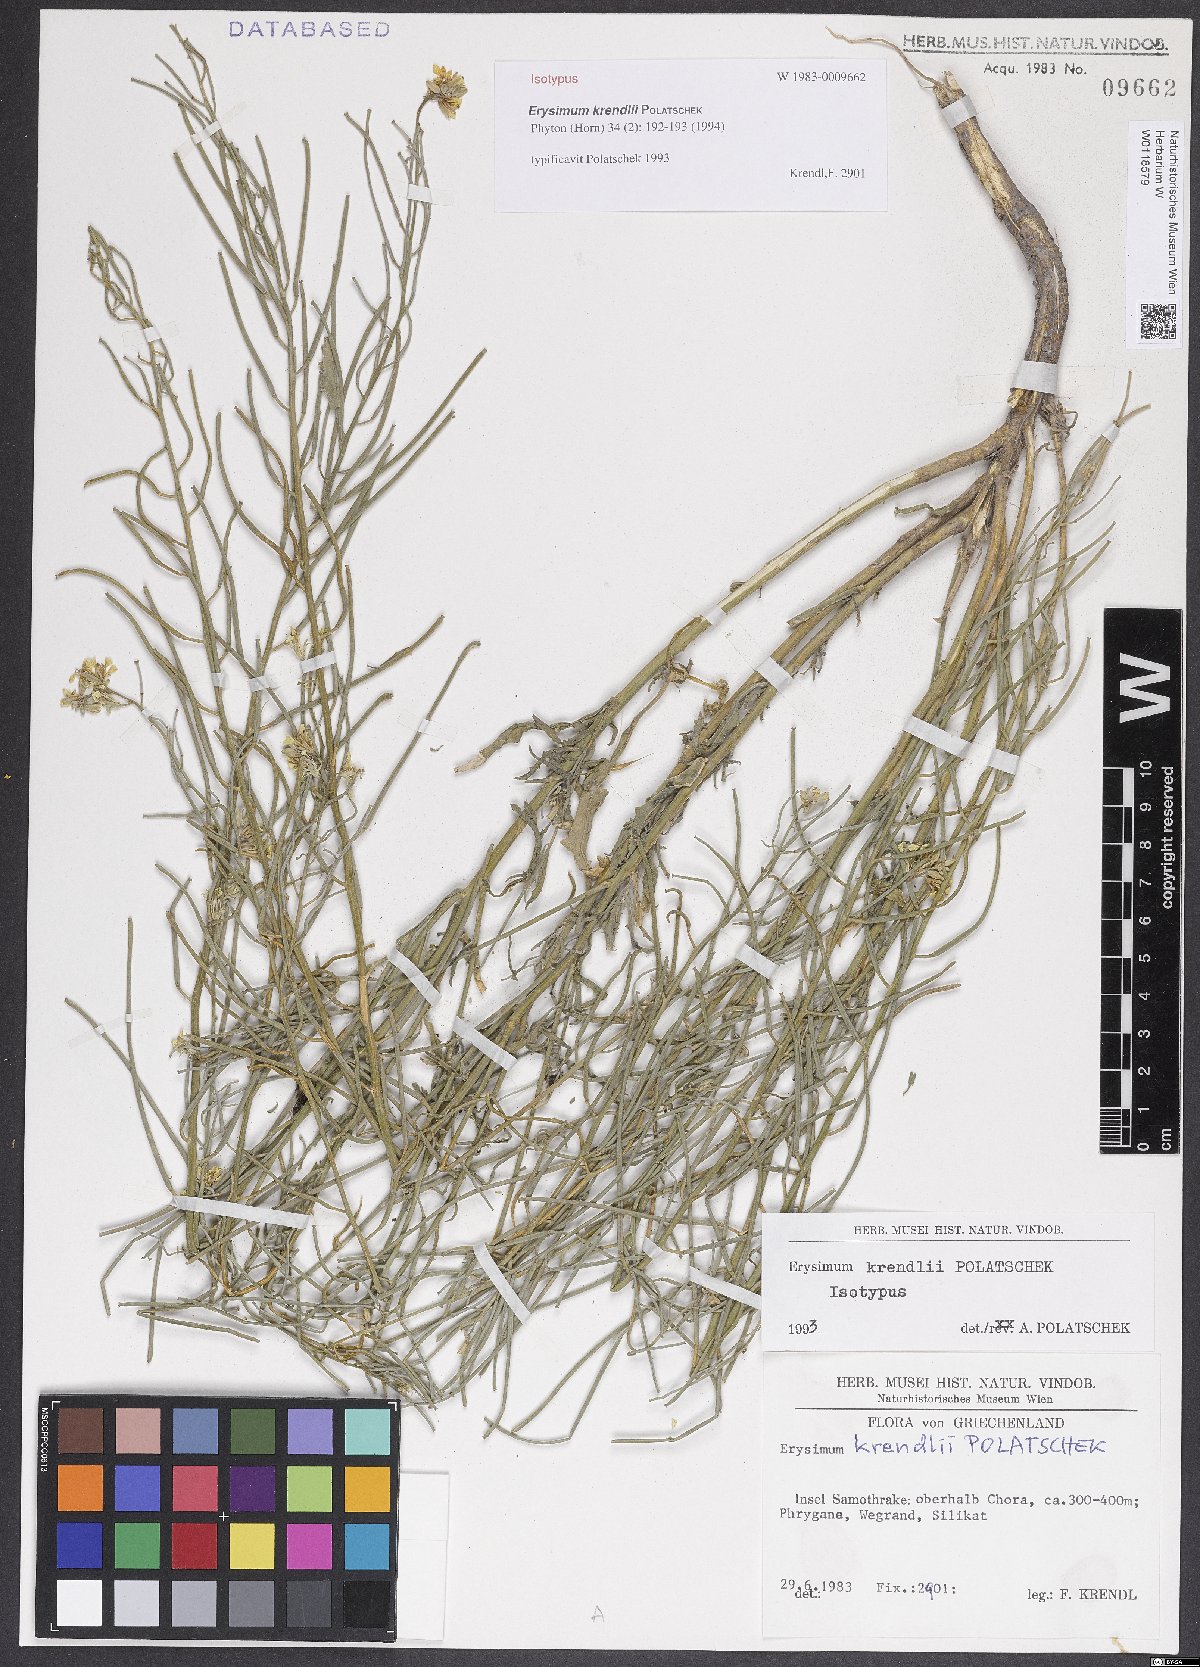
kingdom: Plantae
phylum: Tracheophyta
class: Magnoliopsida
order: Brassicales
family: Brassicaceae
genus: Erysimum
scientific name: Erysimum krendlii
